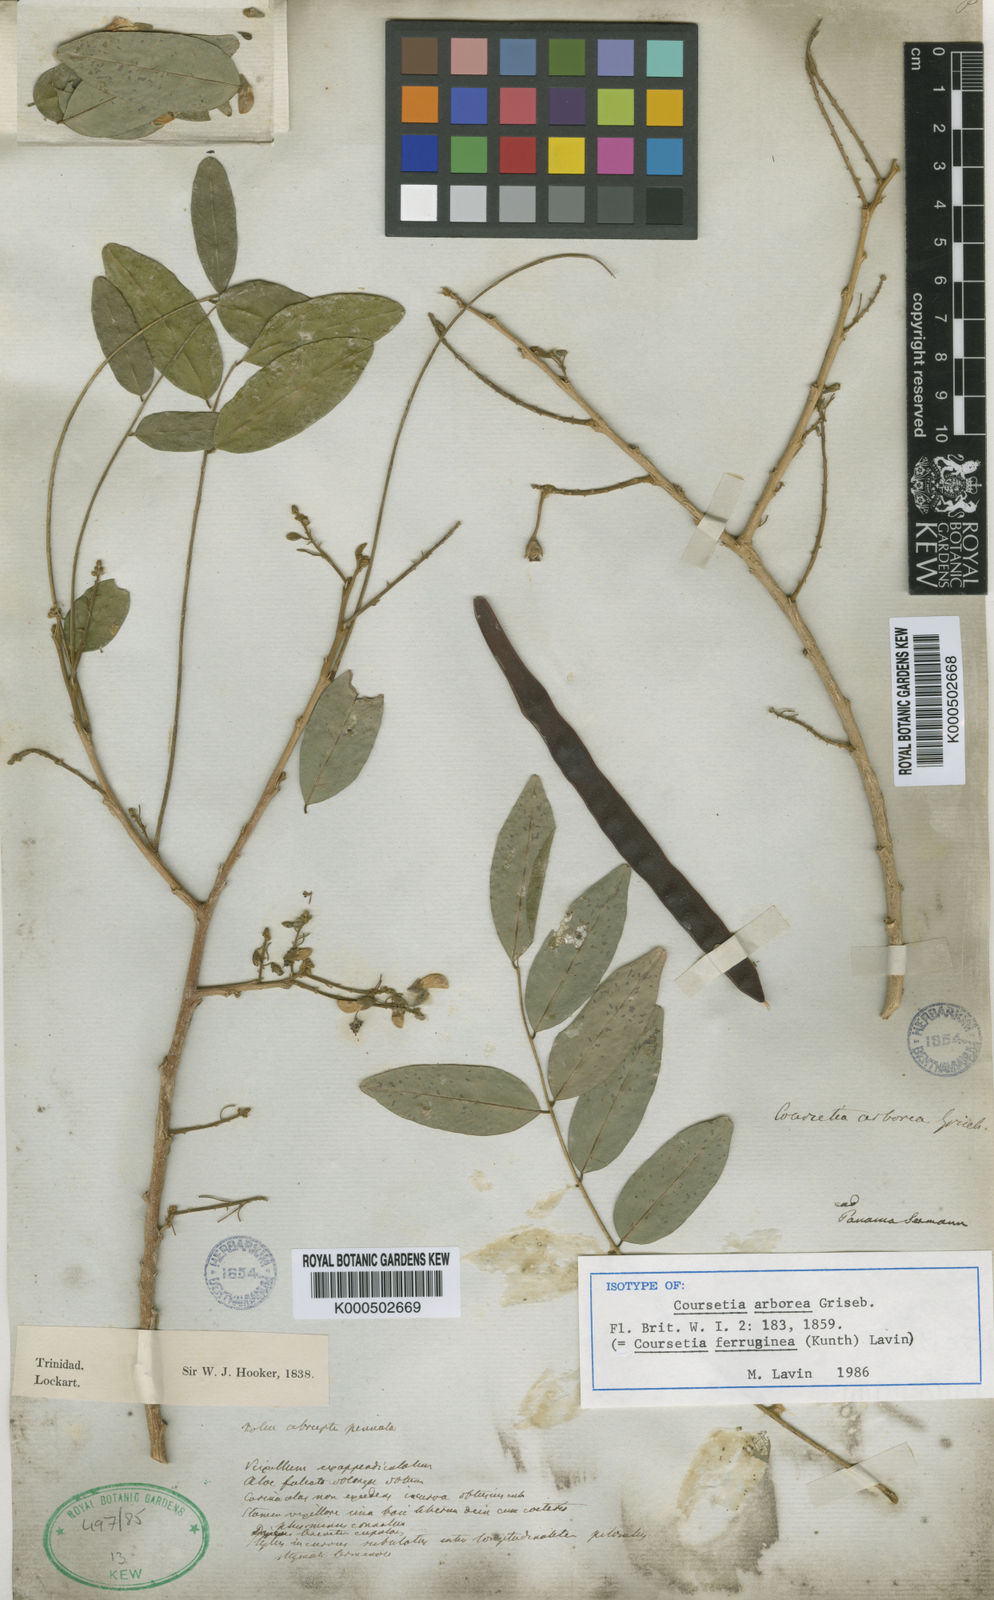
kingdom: Plantae
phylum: Tracheophyta
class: Magnoliopsida
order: Fabales
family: Fabaceae
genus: Coursetia
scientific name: Coursetia ferruginea
